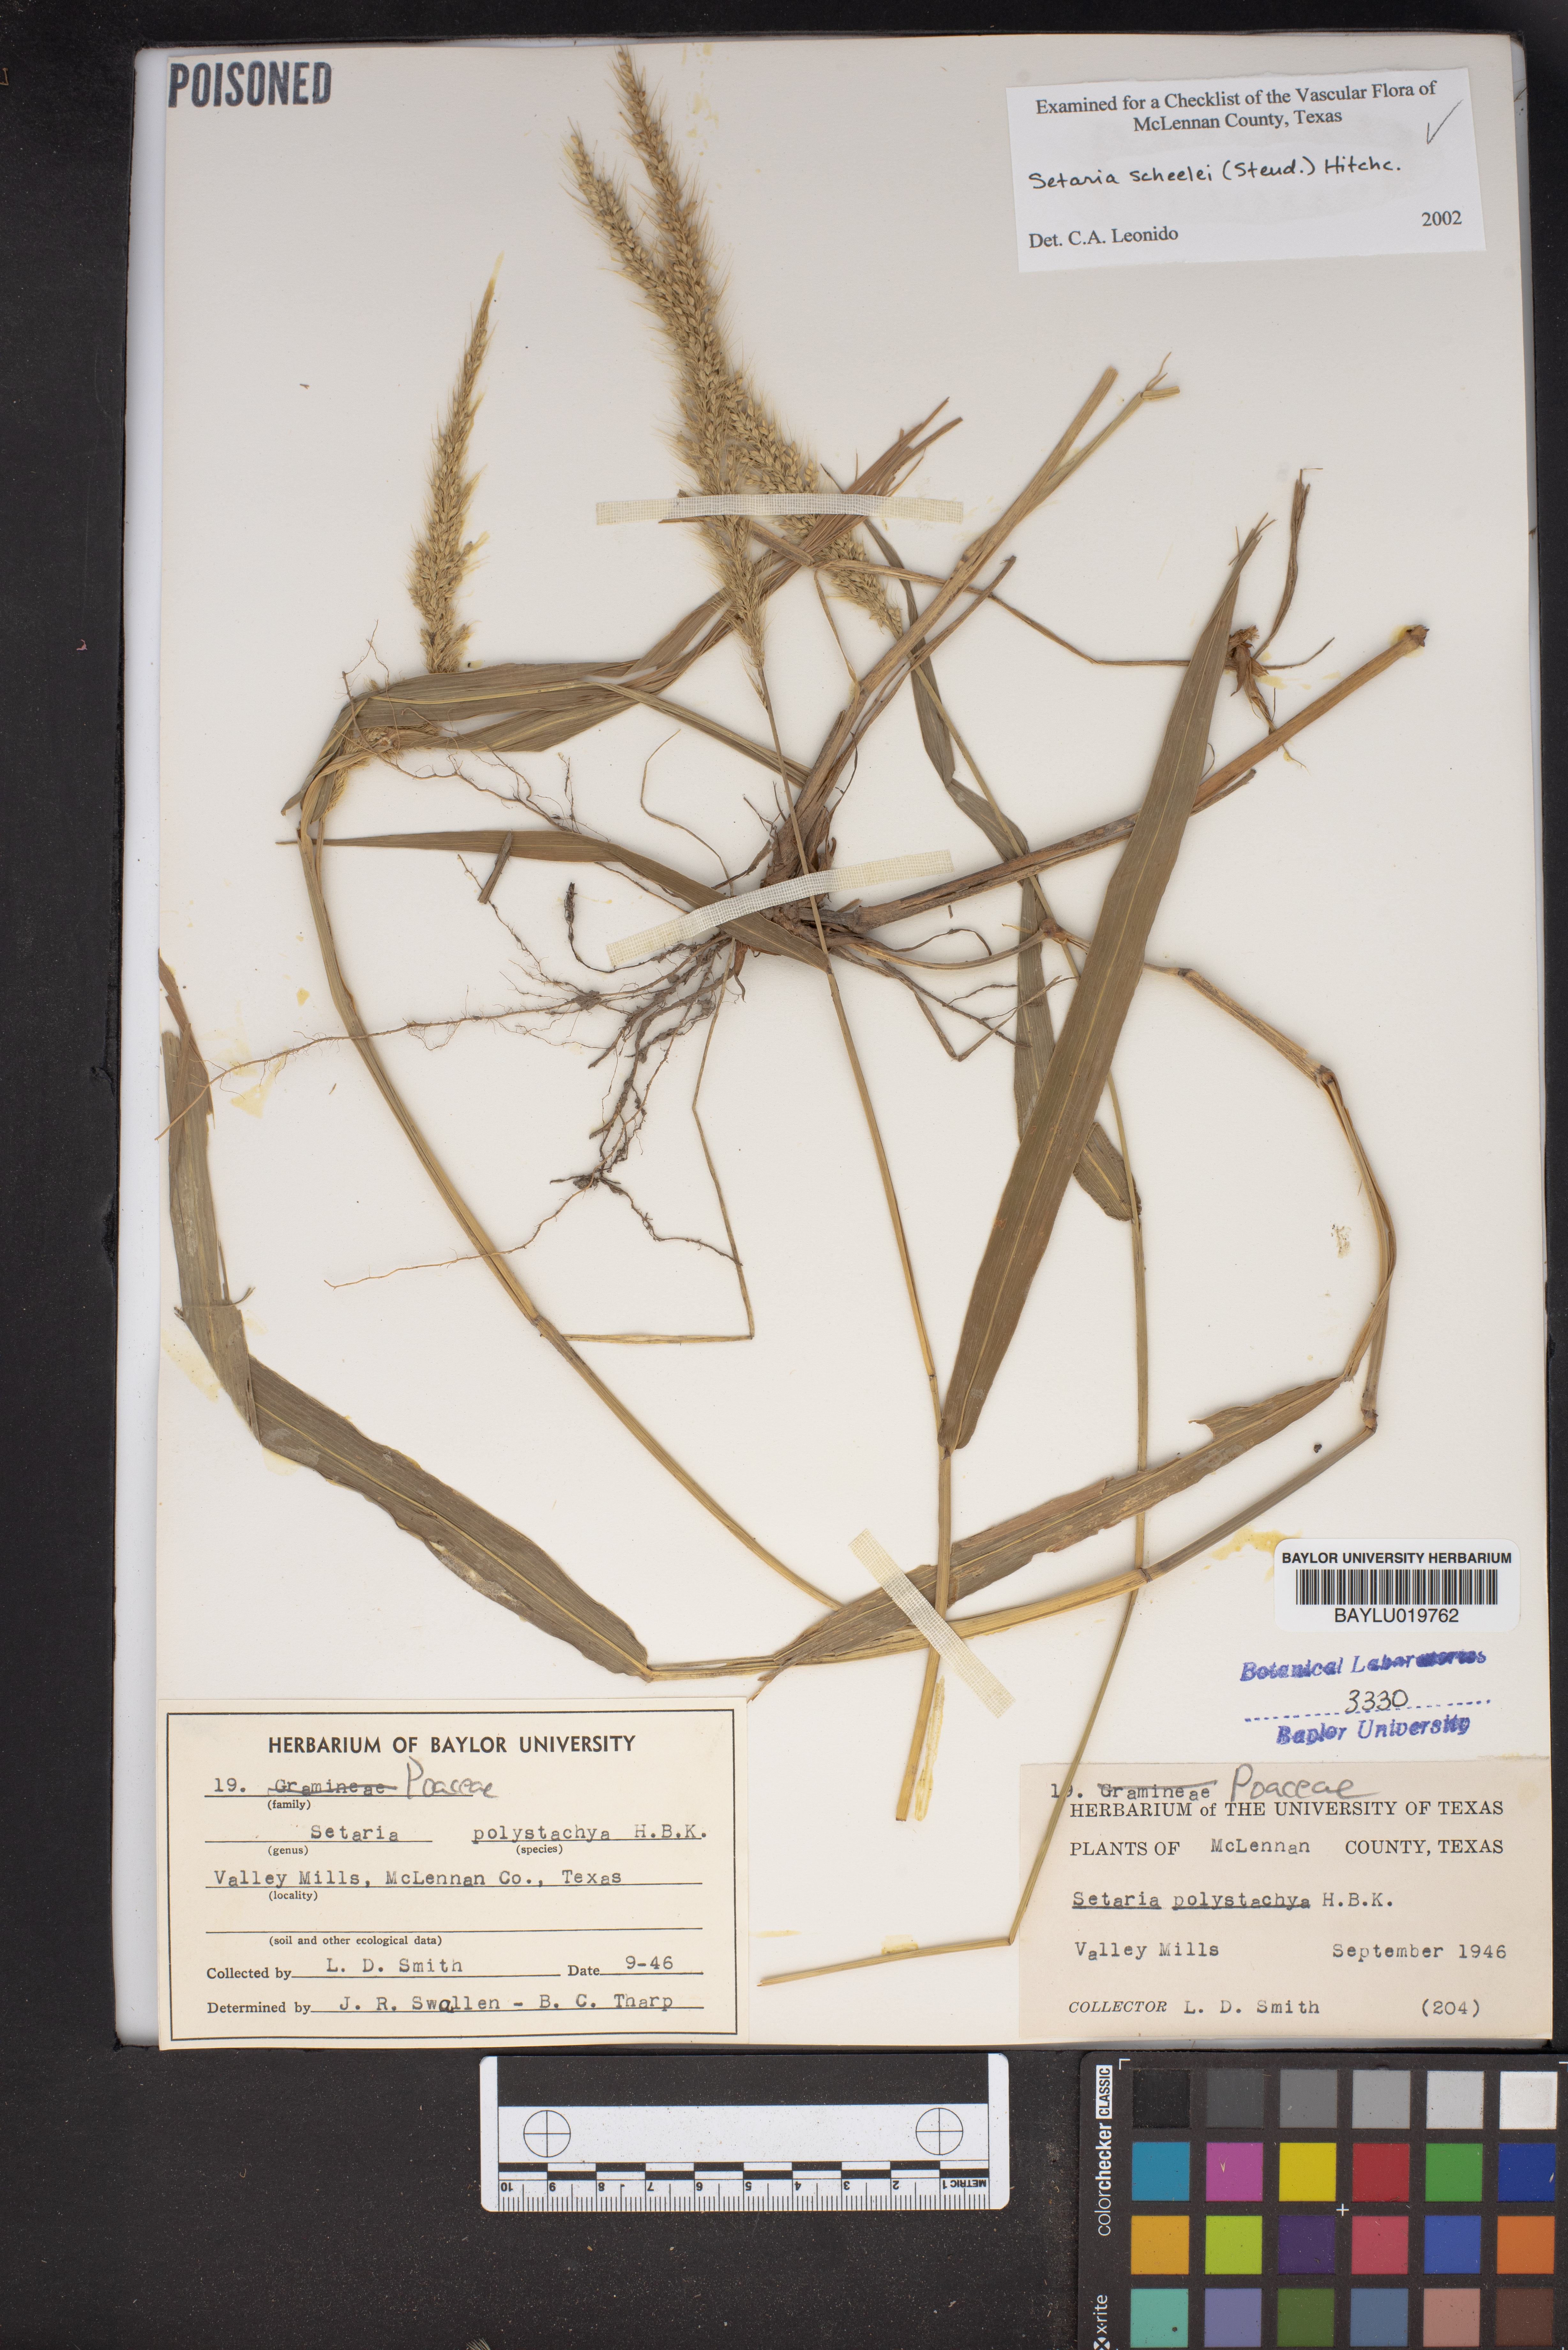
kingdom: Plantae
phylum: Tracheophyta
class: Liliopsida
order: Poales
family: Poaceae
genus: Setaria
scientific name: Setaria scheelei
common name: Southwestern bristle grass
